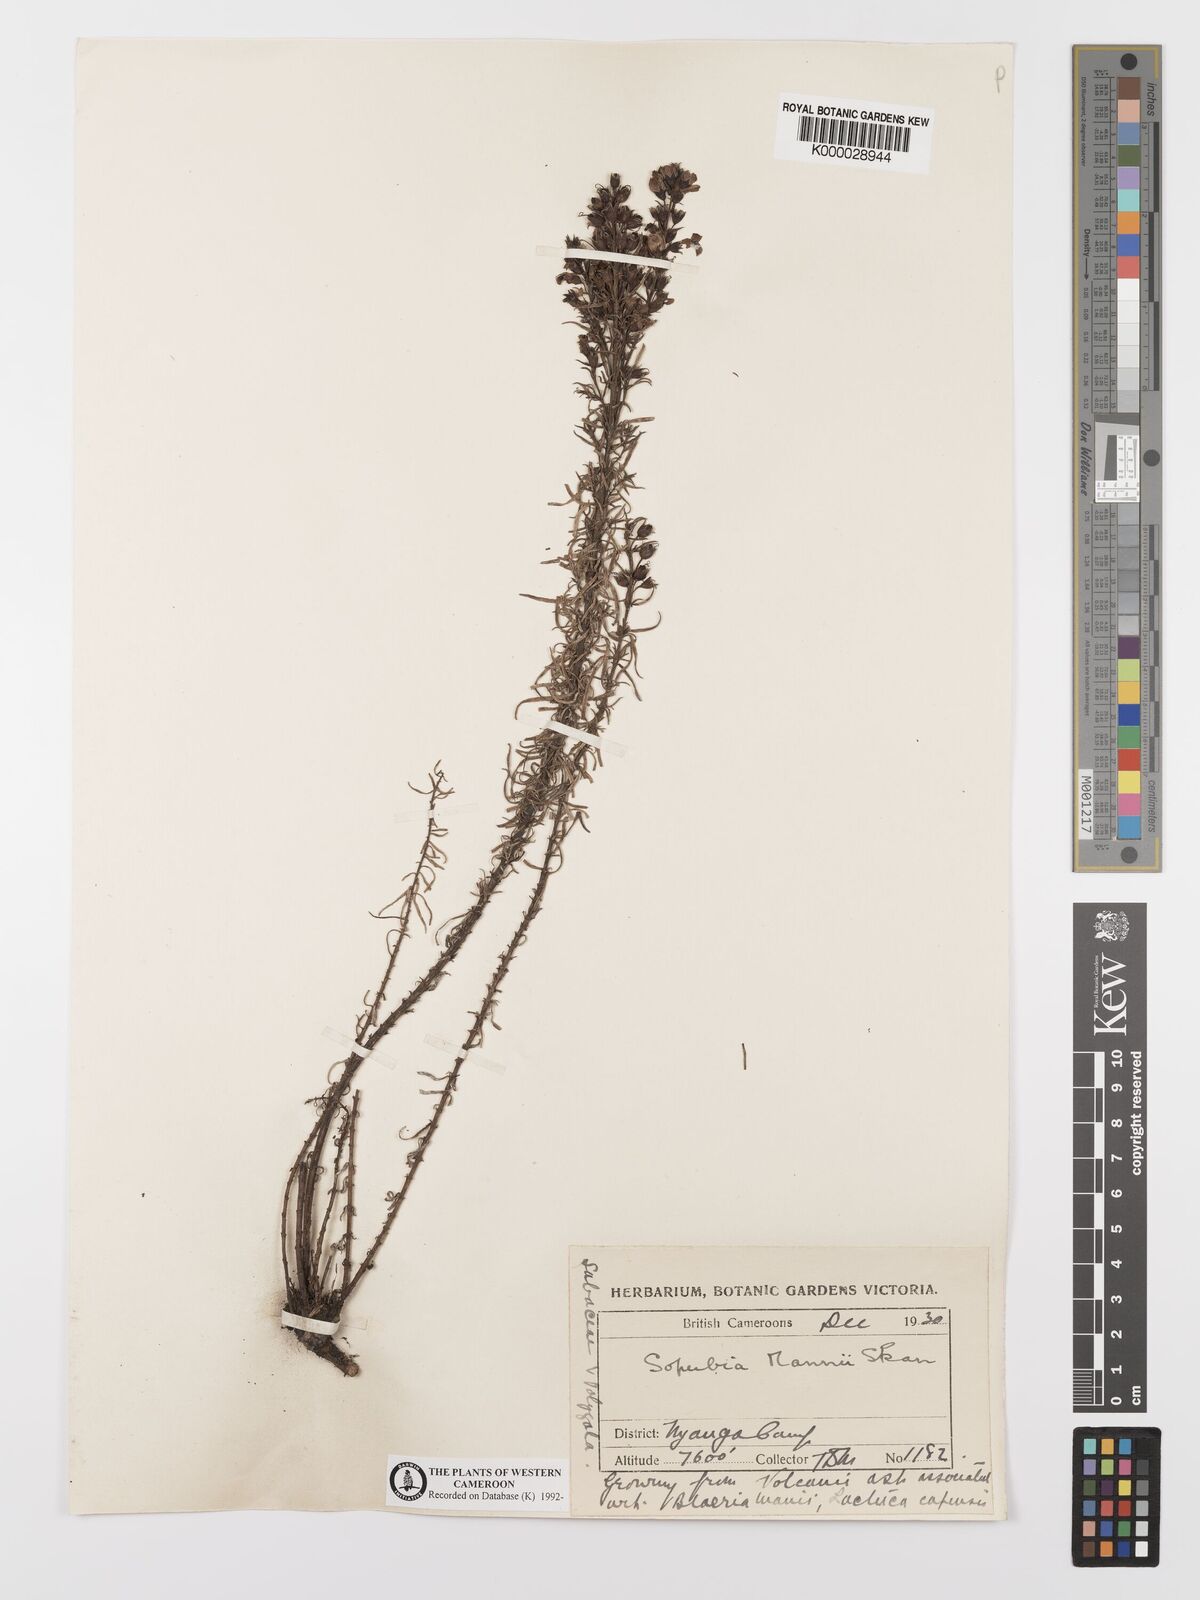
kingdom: Plantae
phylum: Tracheophyta
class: Magnoliopsida
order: Lamiales
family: Orobanchaceae
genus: Sopubia
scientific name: Sopubia mannii
